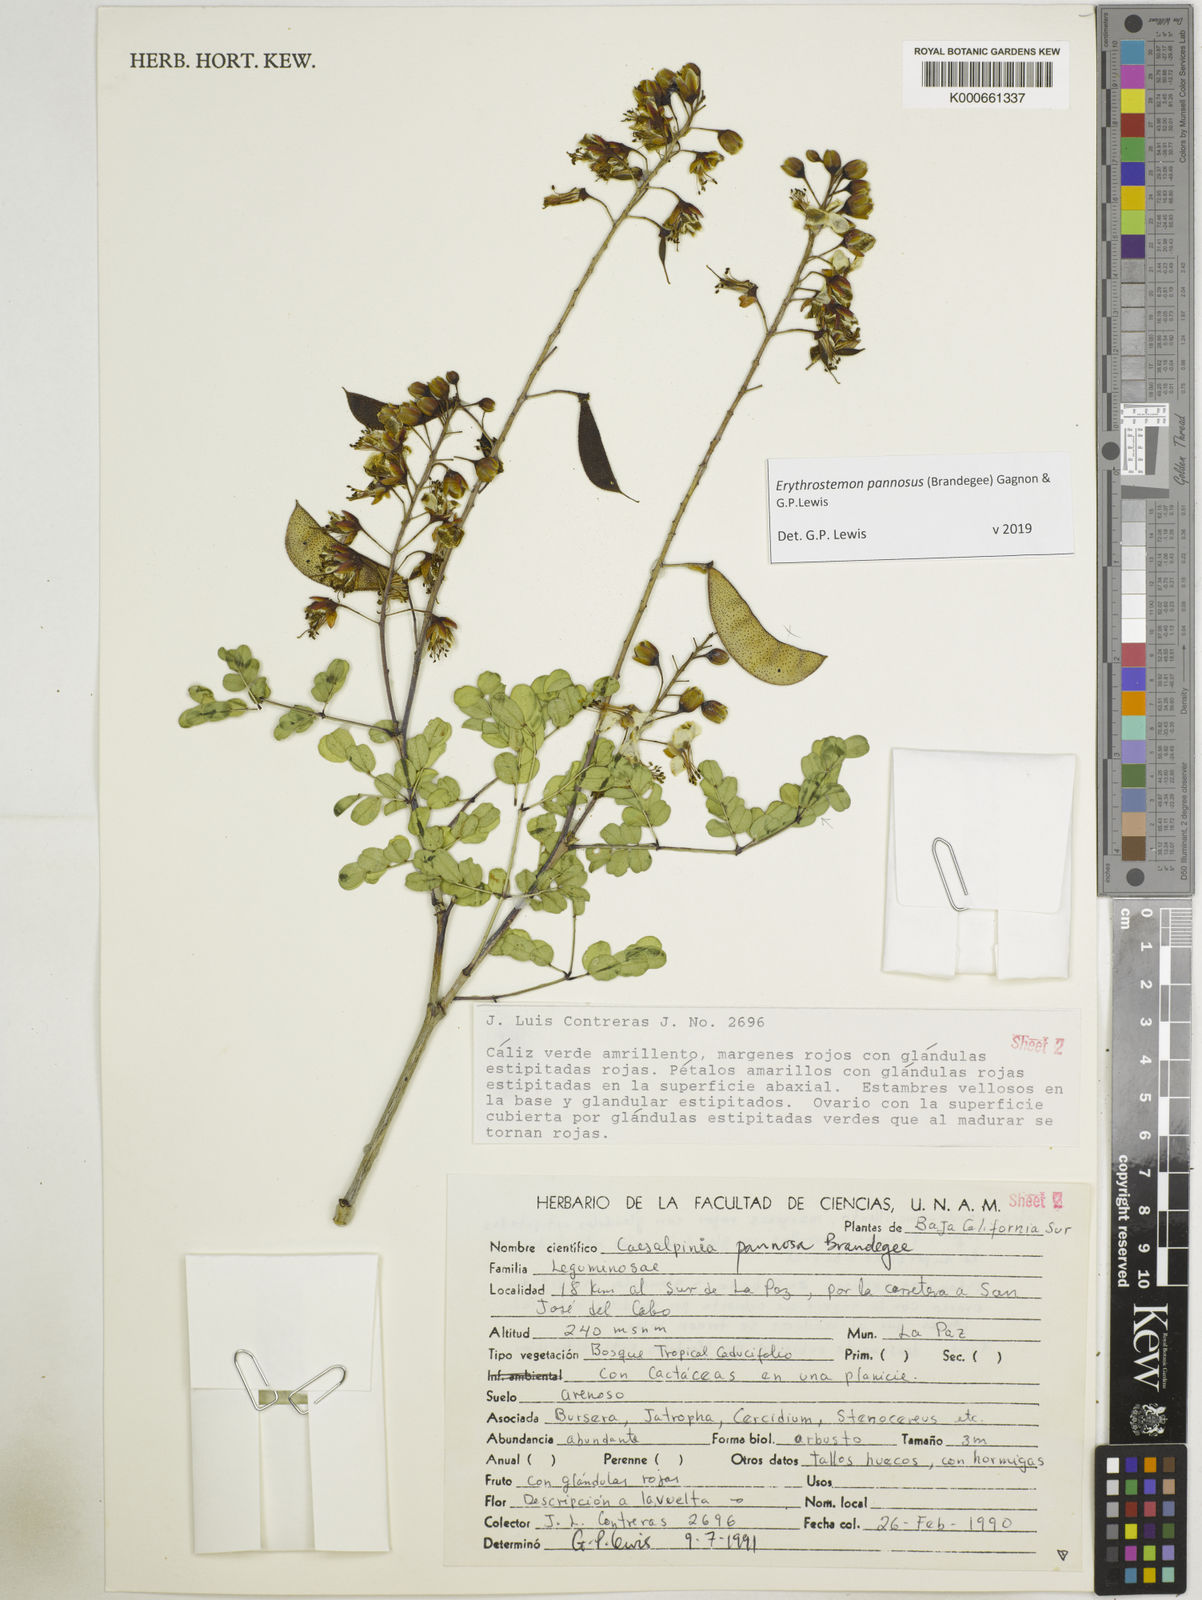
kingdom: Plantae
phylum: Tracheophyta
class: Magnoliopsida
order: Fabales
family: Fabaceae
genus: Erythrostemon
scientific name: Erythrostemon pannosus
